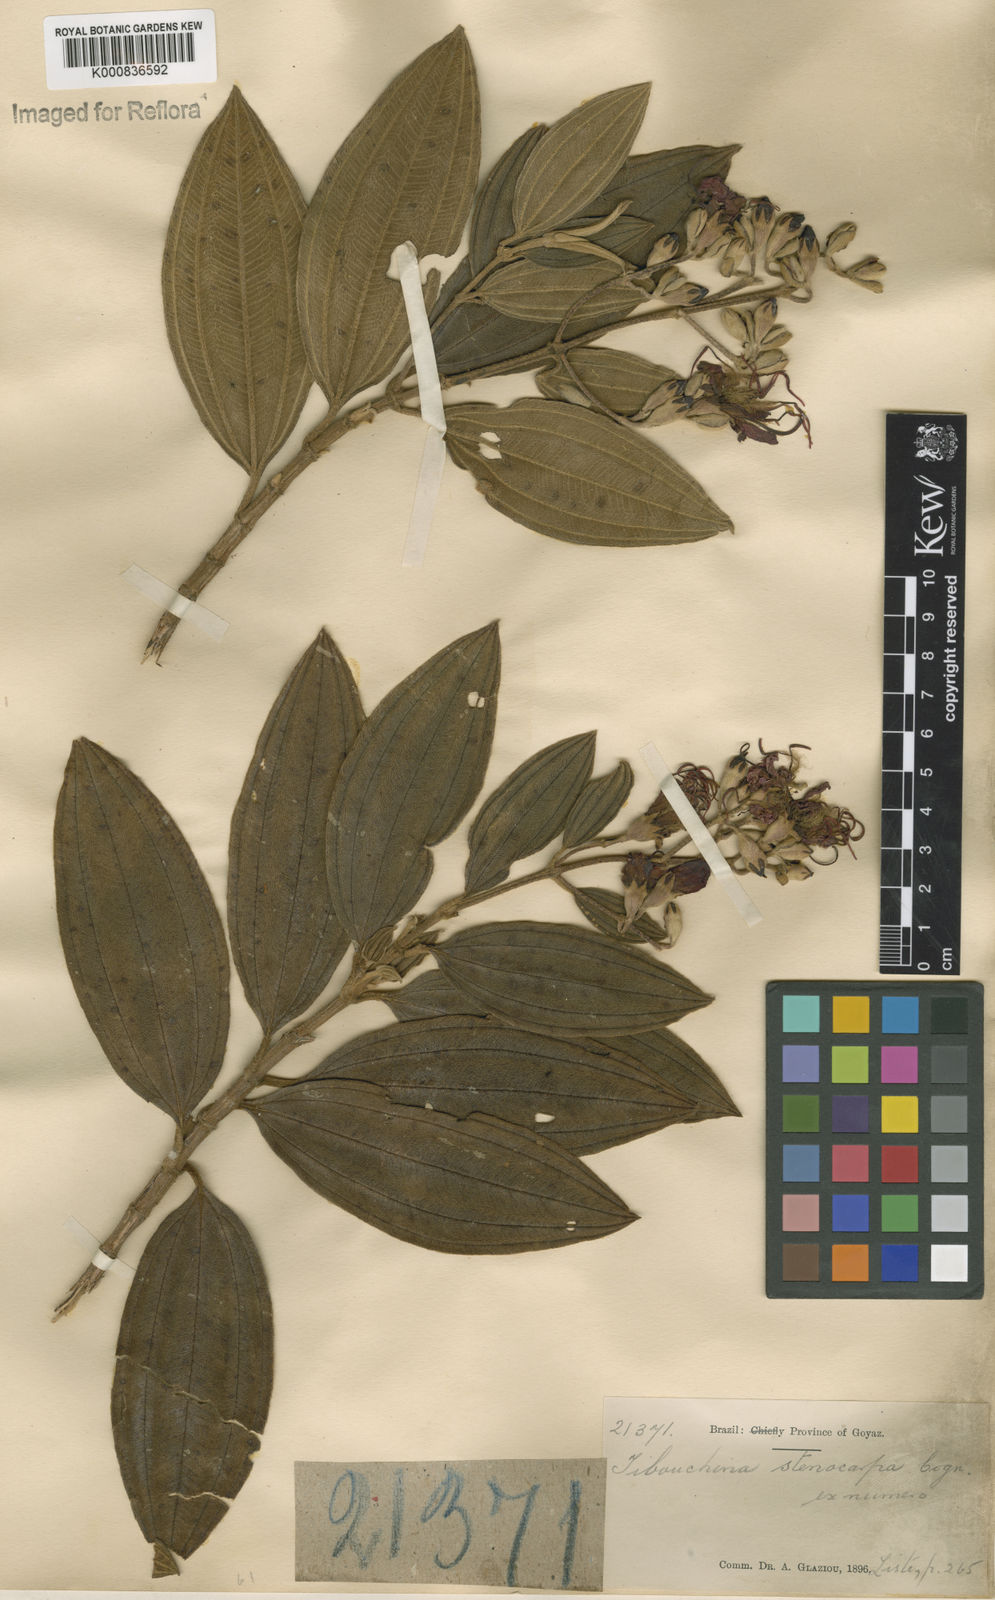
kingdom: Plantae
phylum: Tracheophyta
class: Magnoliopsida
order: Myrtales
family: Melastomataceae
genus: Pleroma
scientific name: Pleroma stenocarpum
